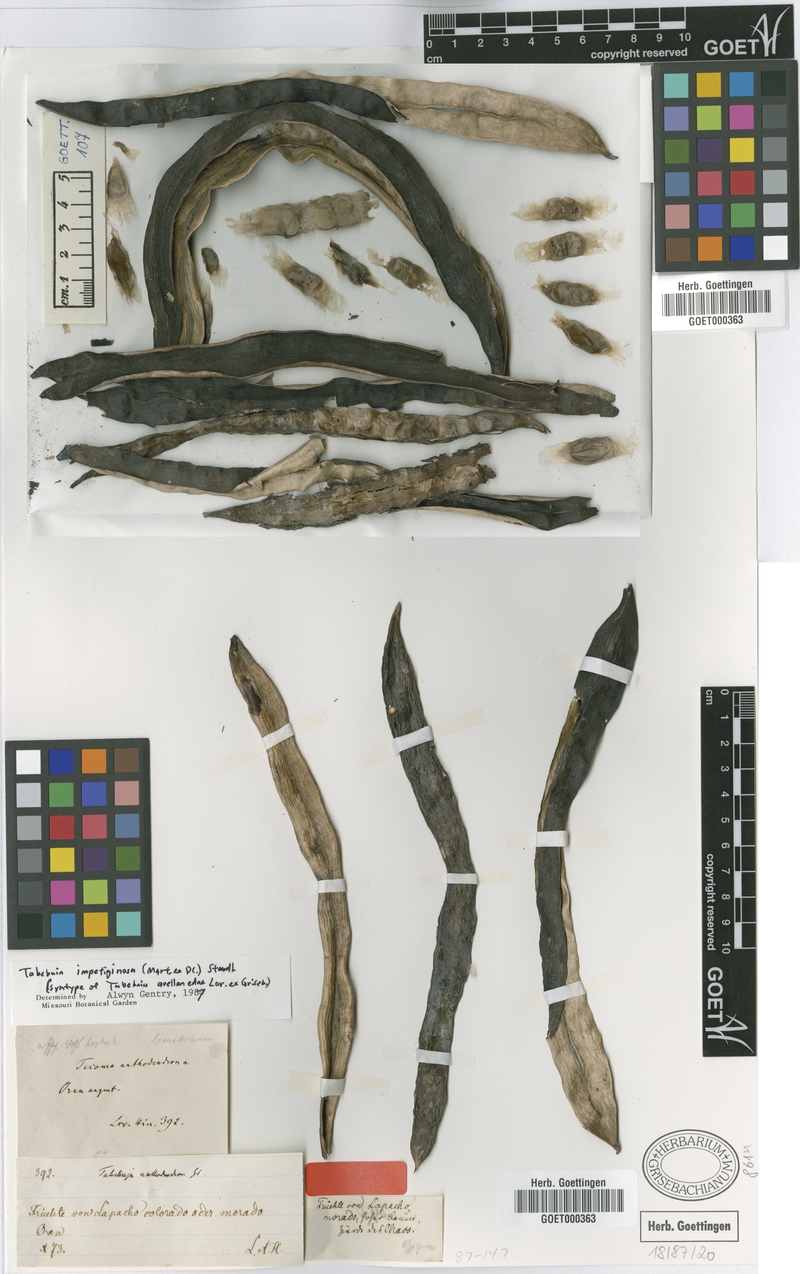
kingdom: Plantae
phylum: Tracheophyta
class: Magnoliopsida
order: Lamiales
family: Bignoniaceae
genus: Handroanthus
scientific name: Handroanthus impetiginosum
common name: Pink trumpet tree
